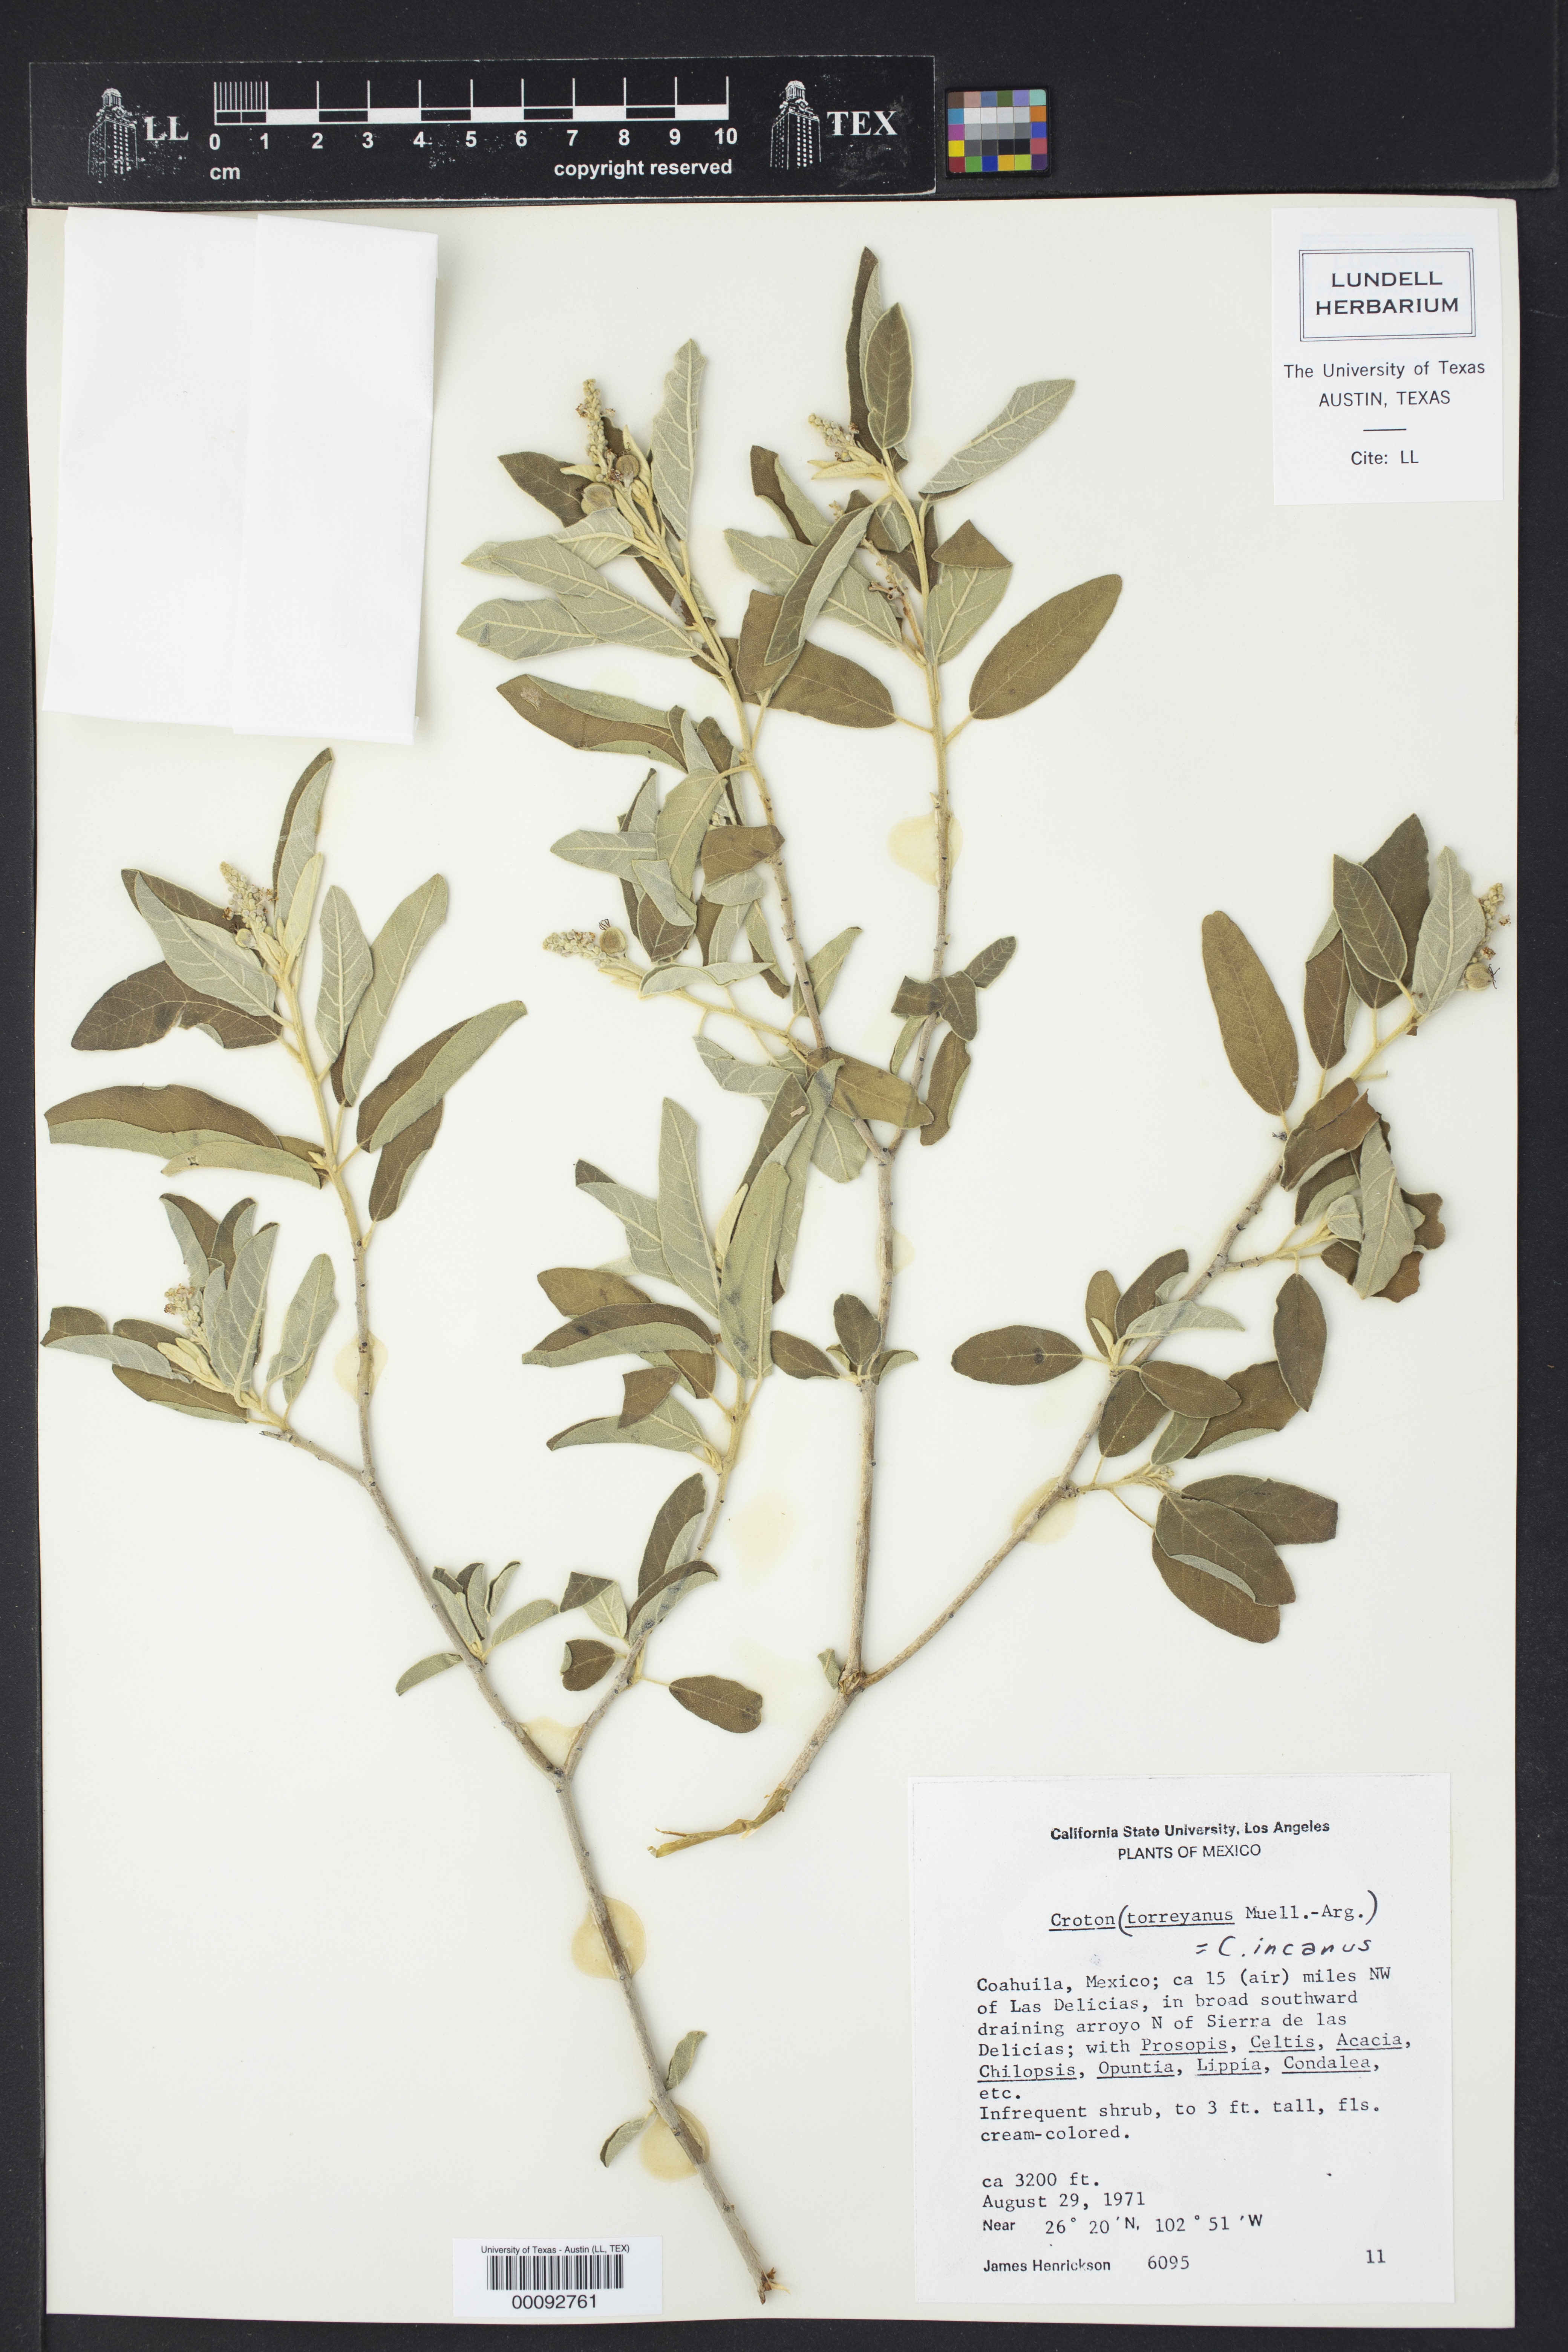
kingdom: Plantae
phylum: Tracheophyta
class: Magnoliopsida
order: Malpighiales
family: Euphorbiaceae
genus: Croton
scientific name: Croton incanus
